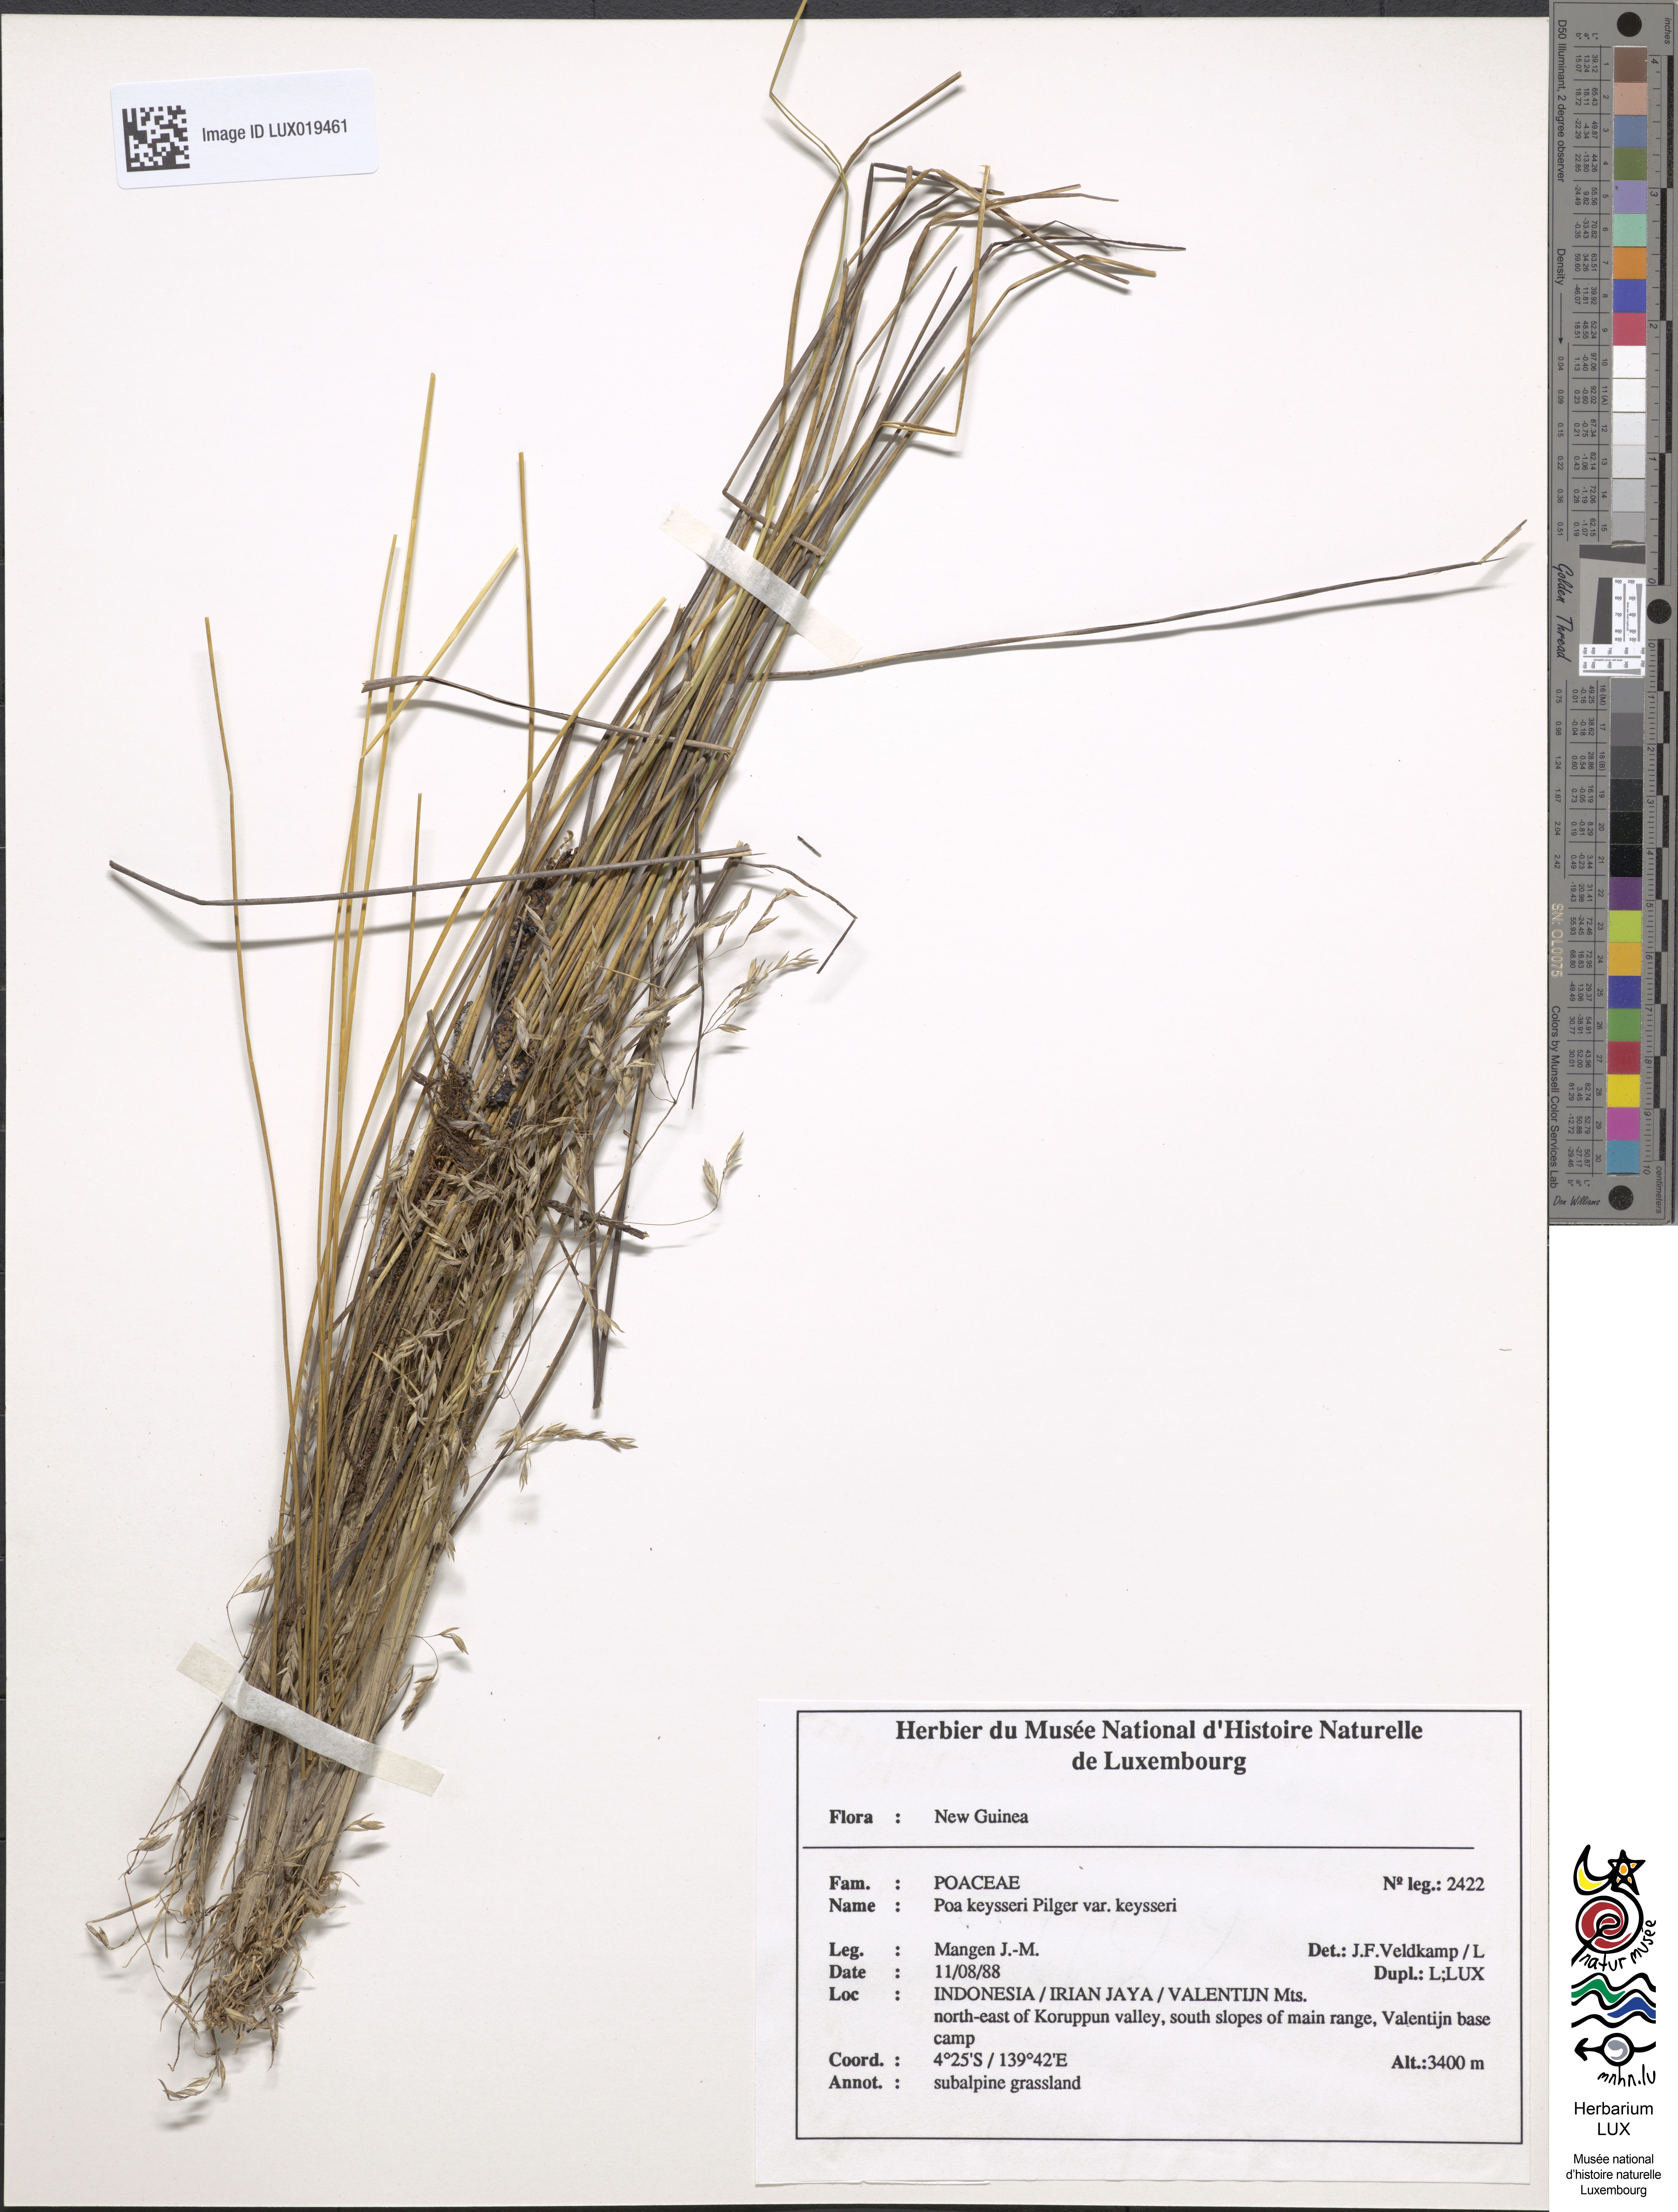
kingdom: Plantae
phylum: Tracheophyta
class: Liliopsida
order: Poales
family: Poaceae
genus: Poa
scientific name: Poa keysseri
